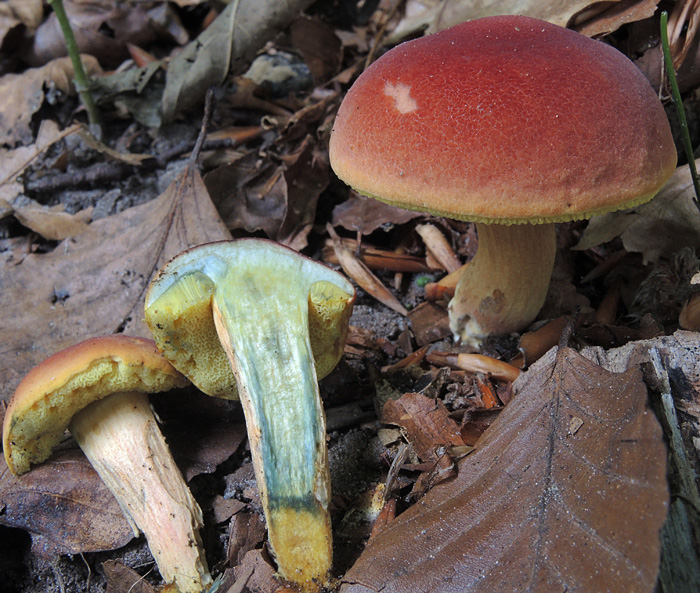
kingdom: Fungi
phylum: Basidiomycota
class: Agaricomycetes
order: Boletales
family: Boletaceae
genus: Hortiboletus
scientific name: Hortiboletus rubellus
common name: blodrød rørhat
